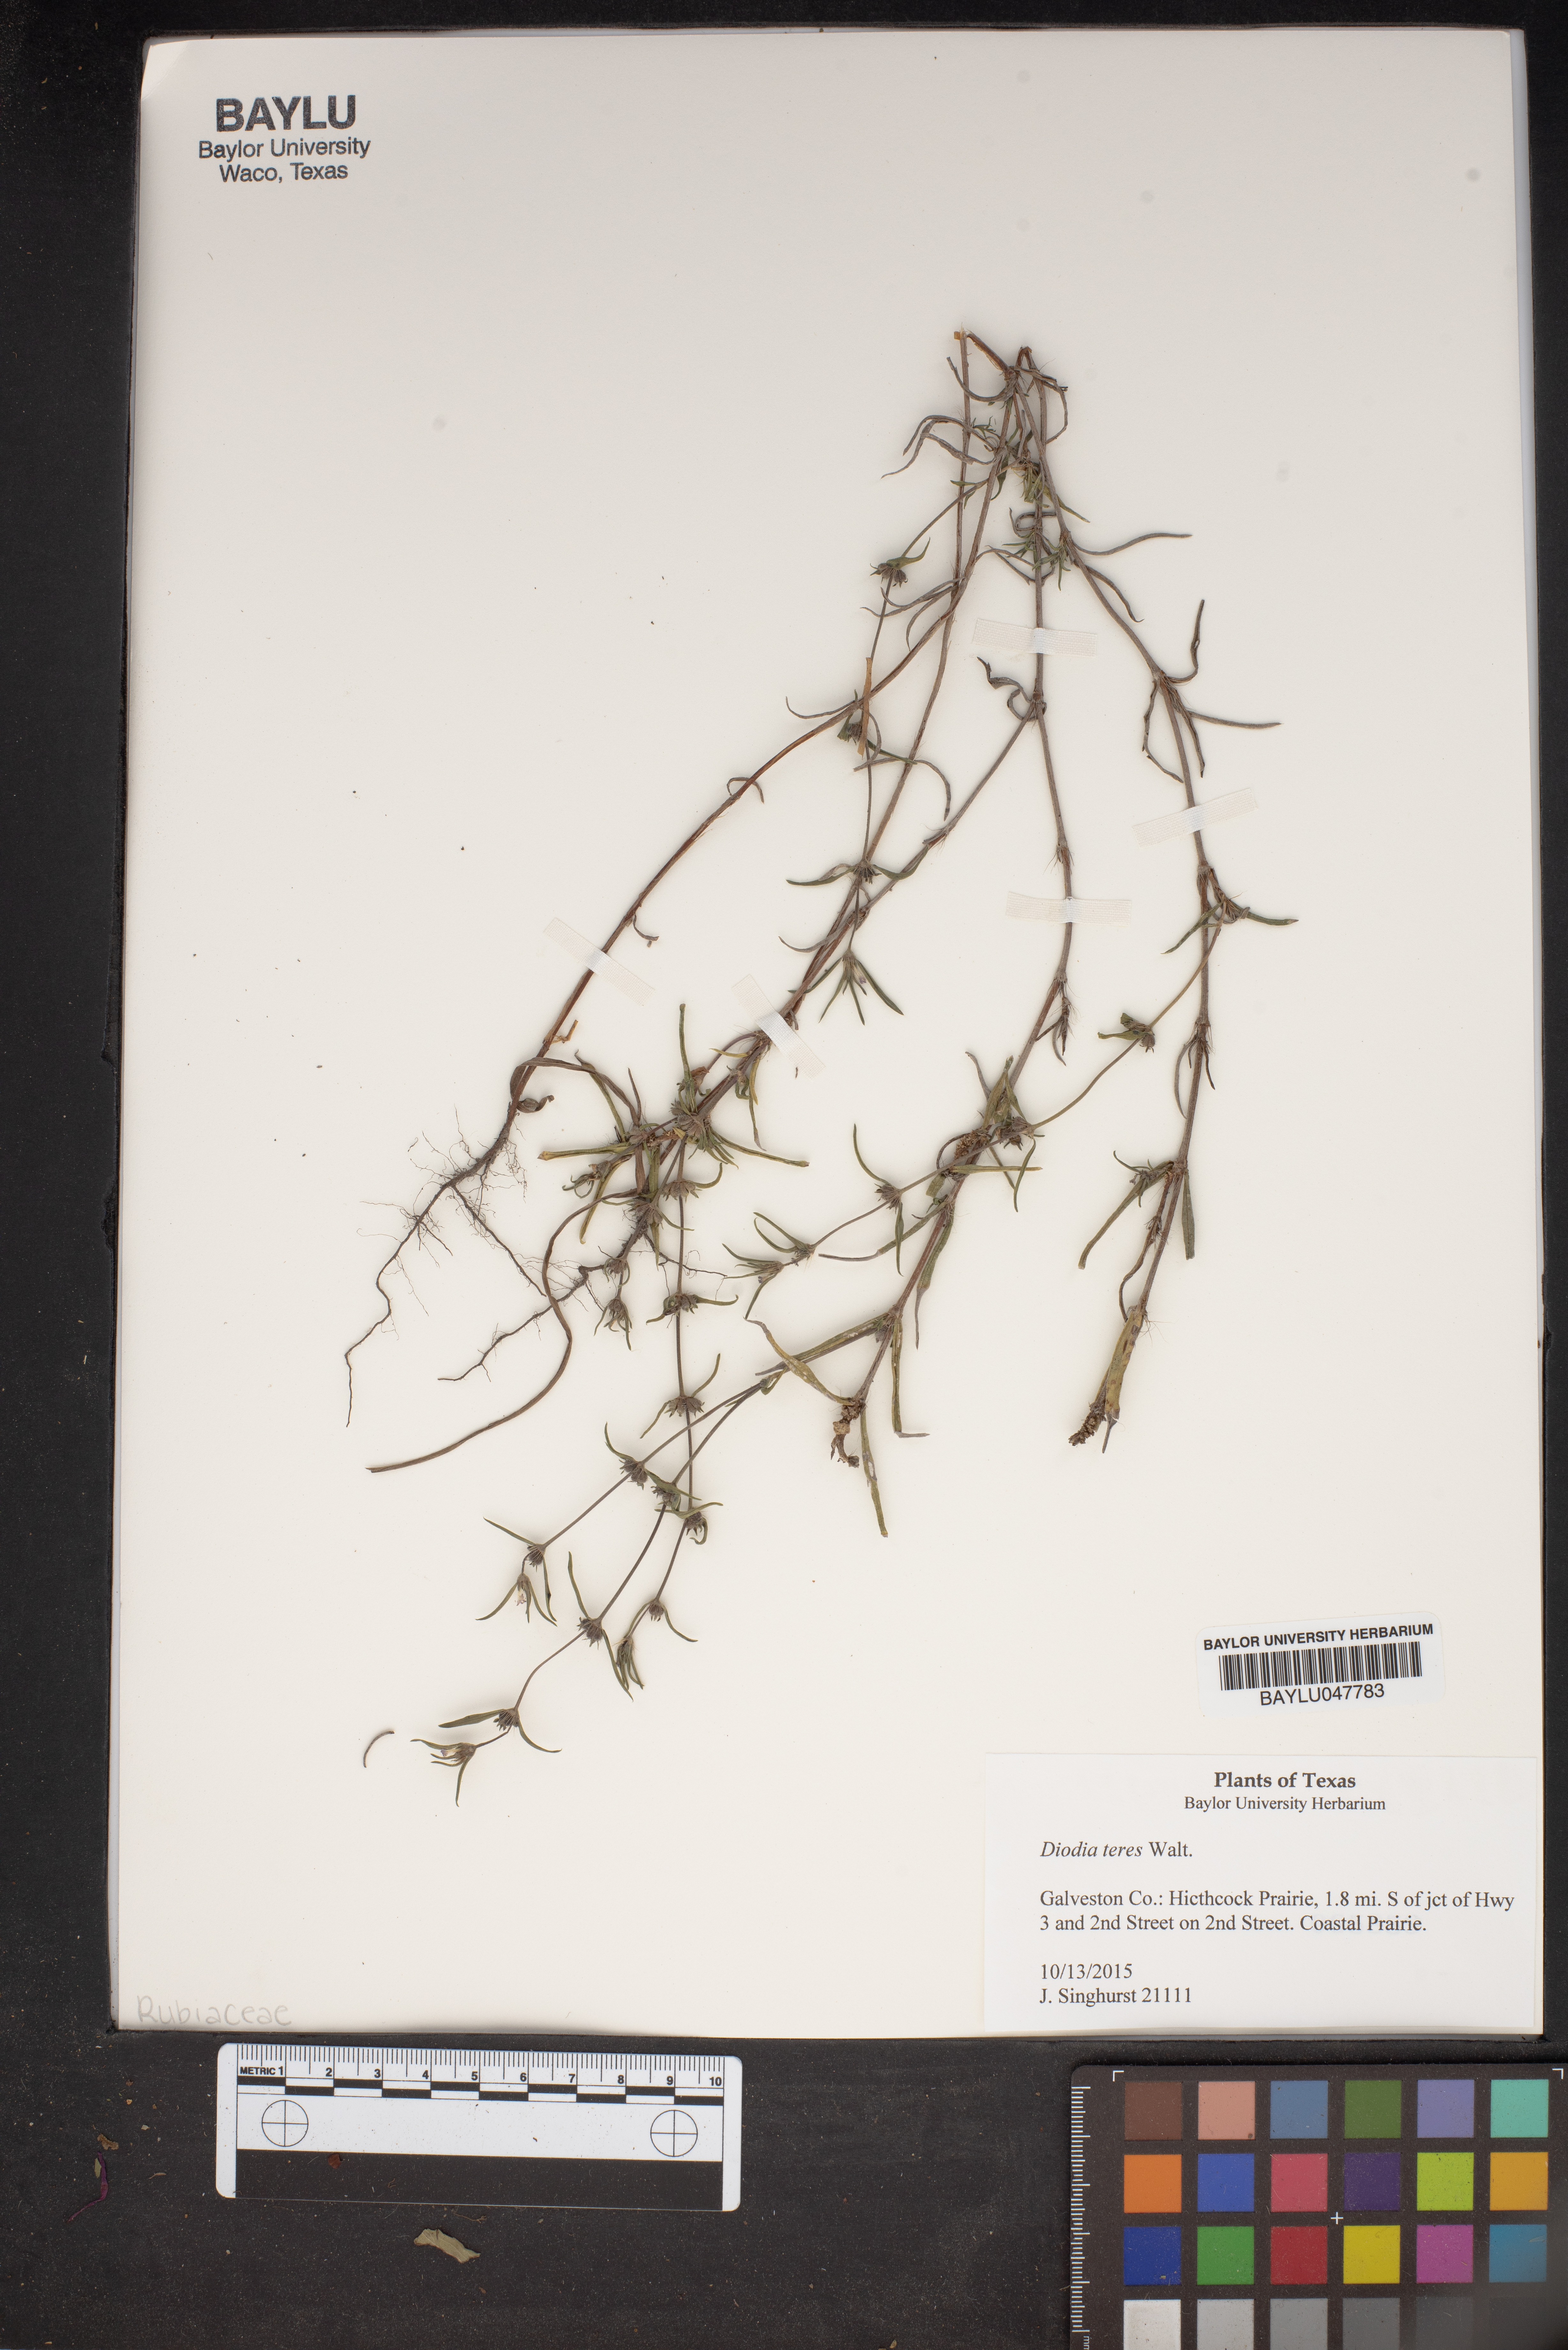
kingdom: Plantae
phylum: Tracheophyta
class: Magnoliopsida
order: Gentianales
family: Rubiaceae
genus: Hexasepalum
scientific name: Hexasepalum teres
